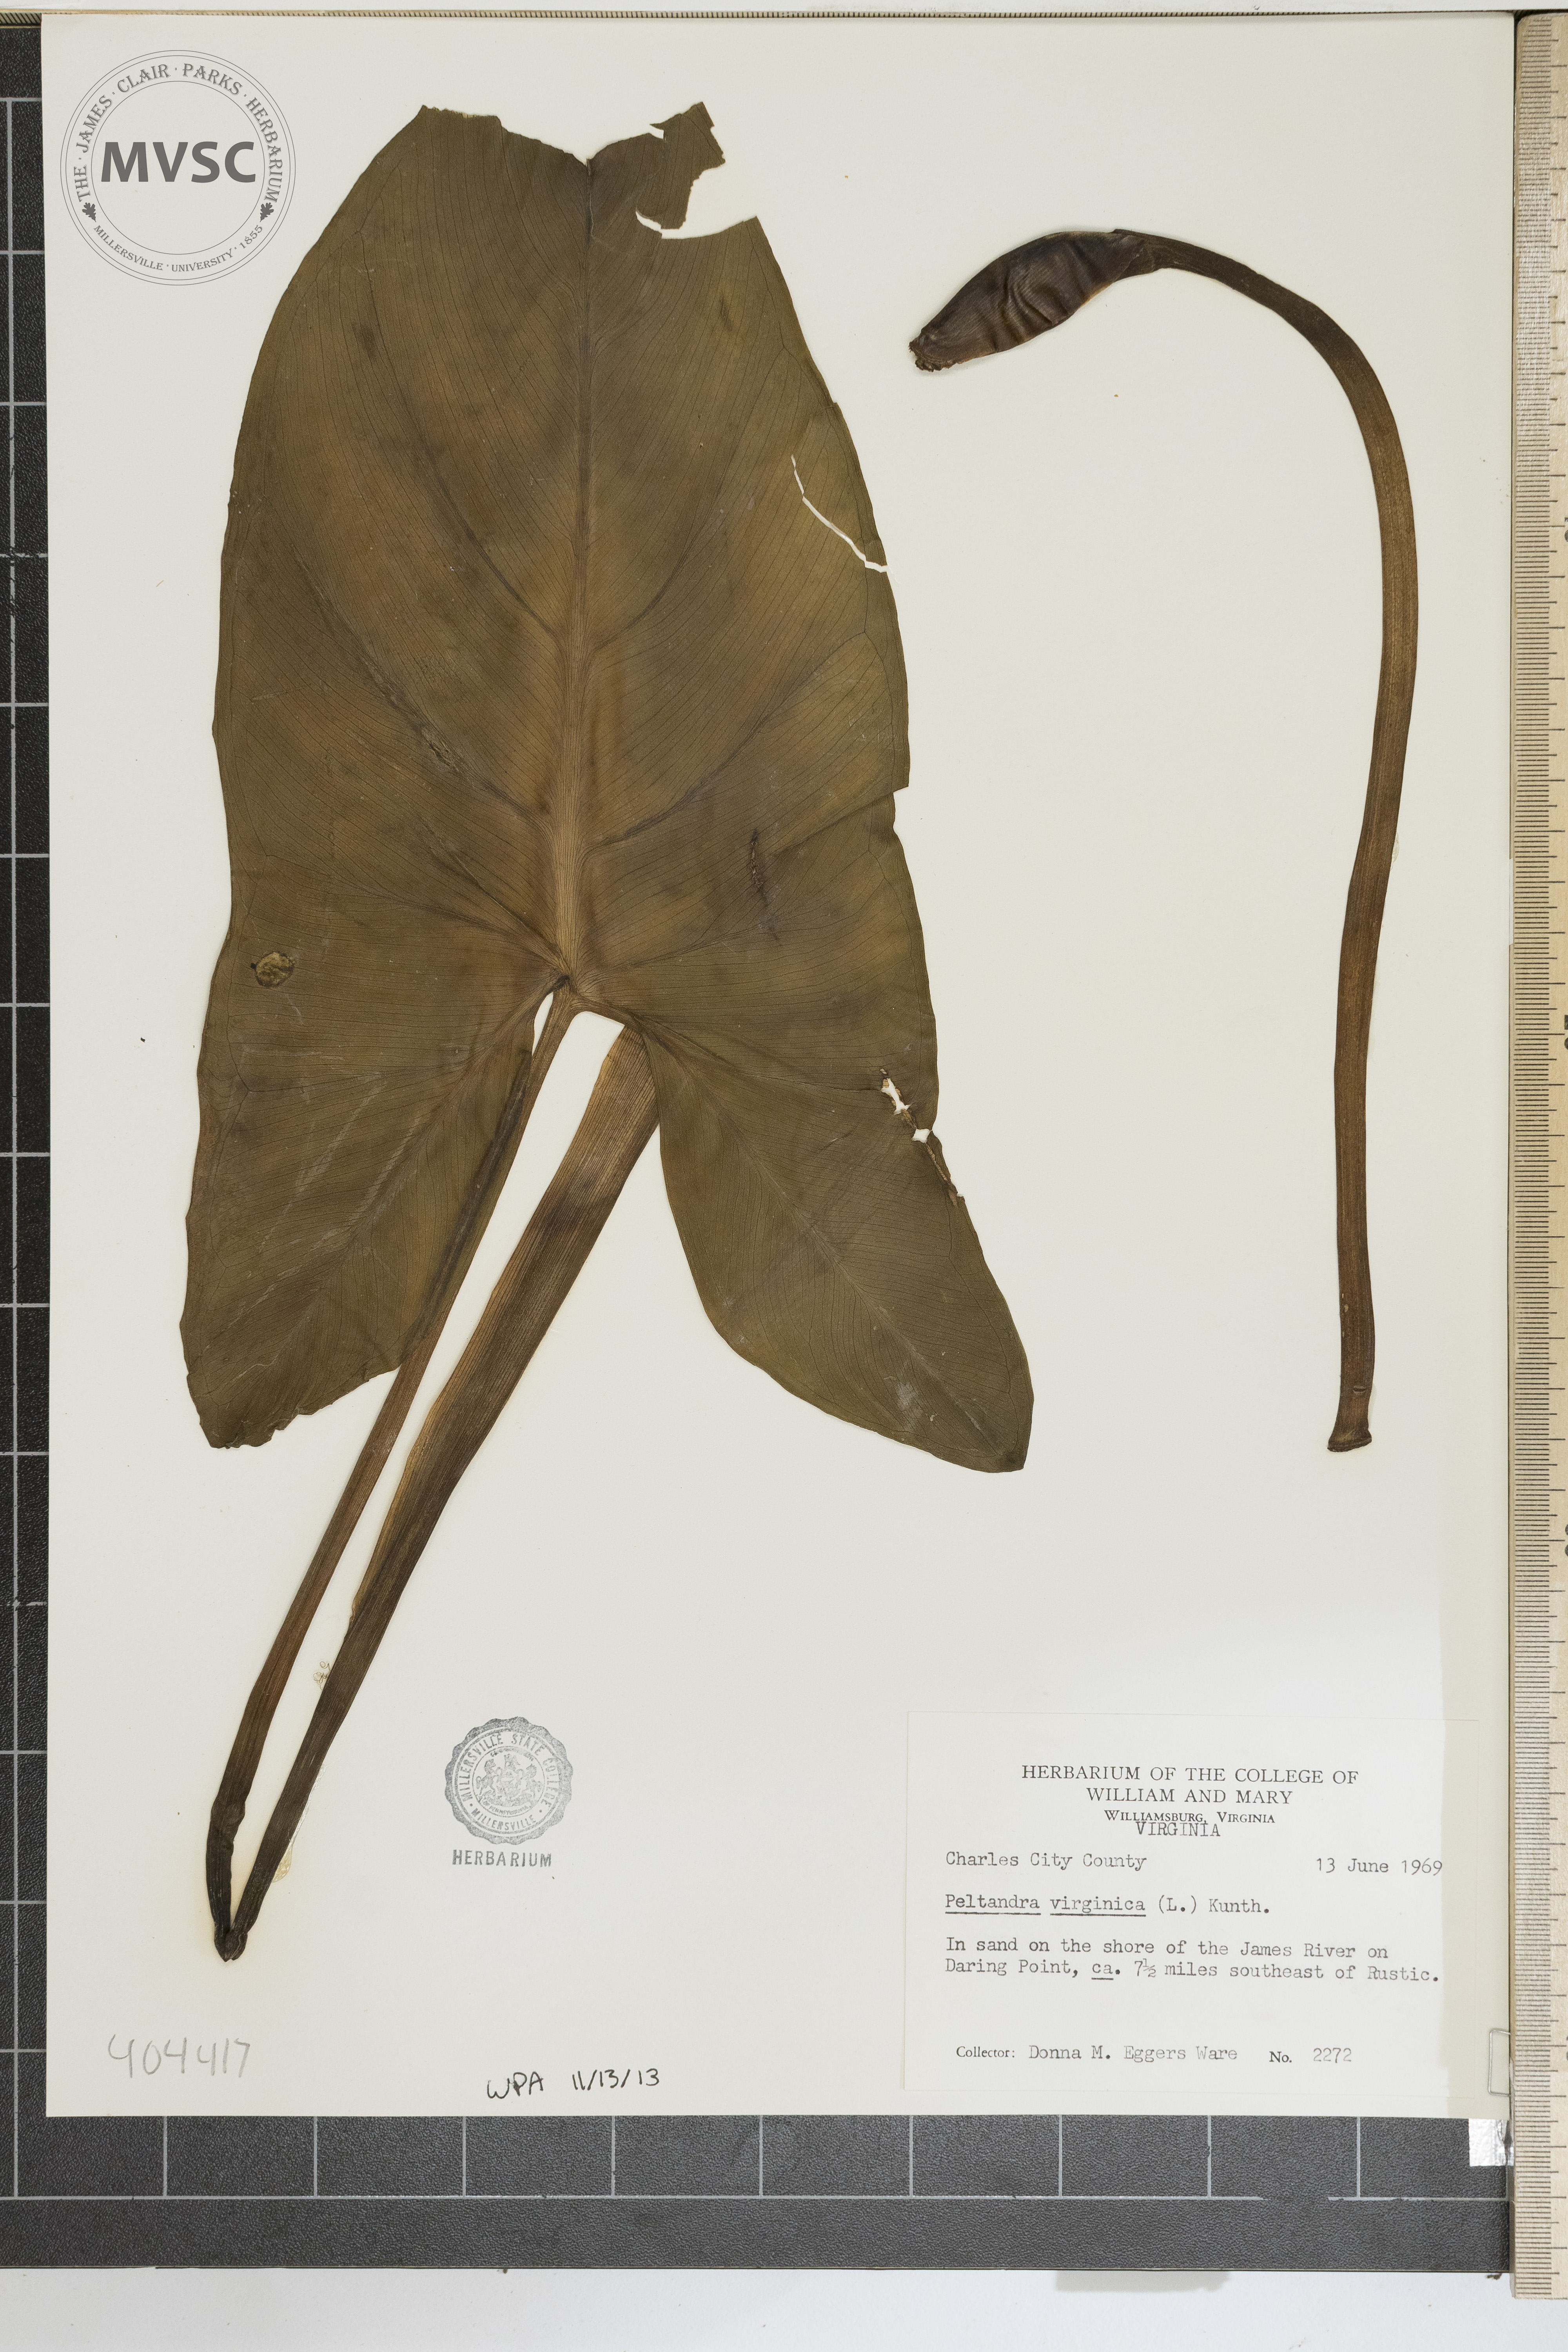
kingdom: Plantae
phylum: Tracheophyta
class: Liliopsida
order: Alismatales
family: Araceae
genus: Peltandra
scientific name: Peltandra virginica
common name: Arrow arum
